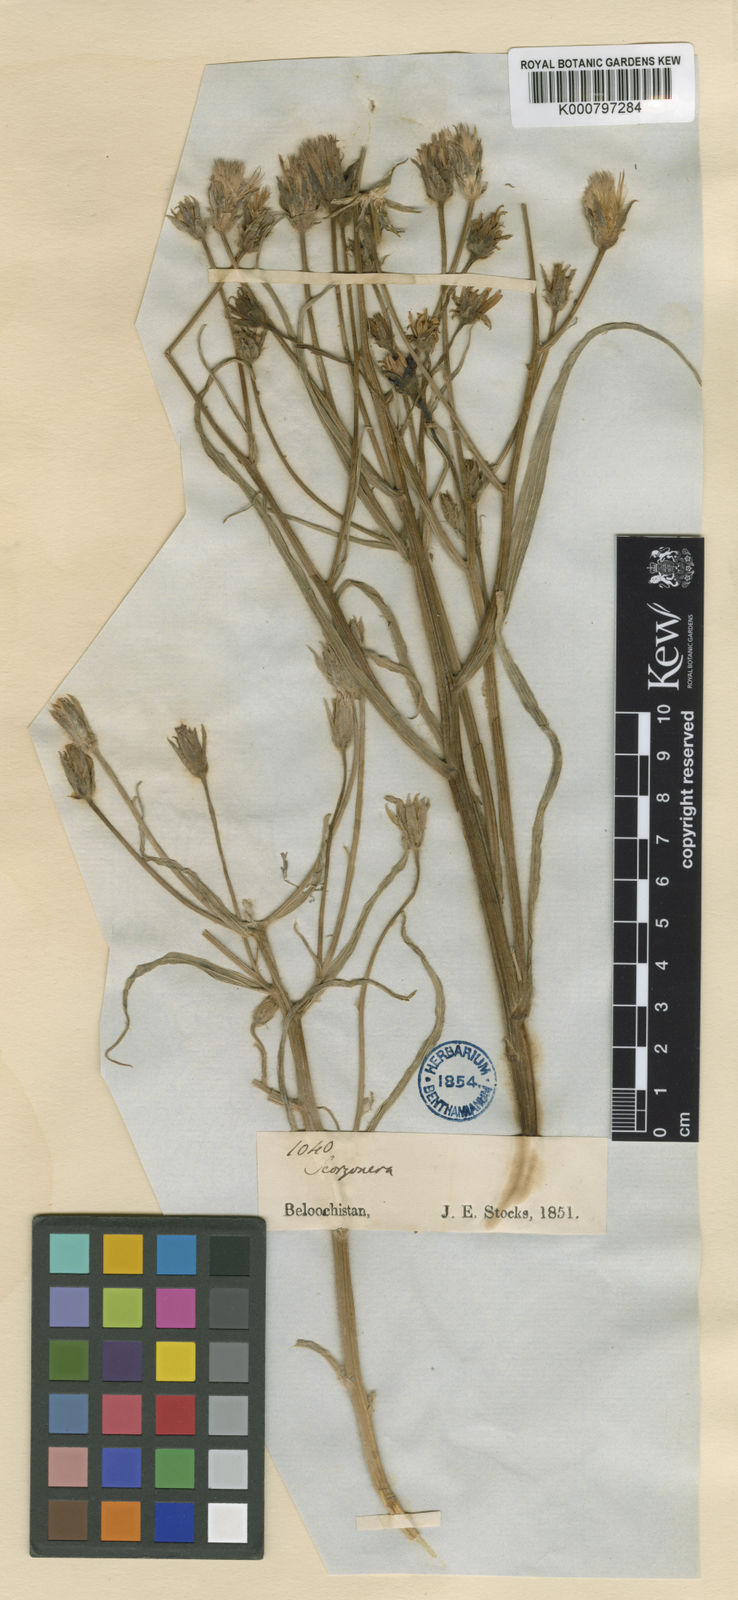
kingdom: Plantae
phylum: Tracheophyta
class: Magnoliopsida
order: Asterales
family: Asteraceae
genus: Scorzonera
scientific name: Scorzonera gageoides
